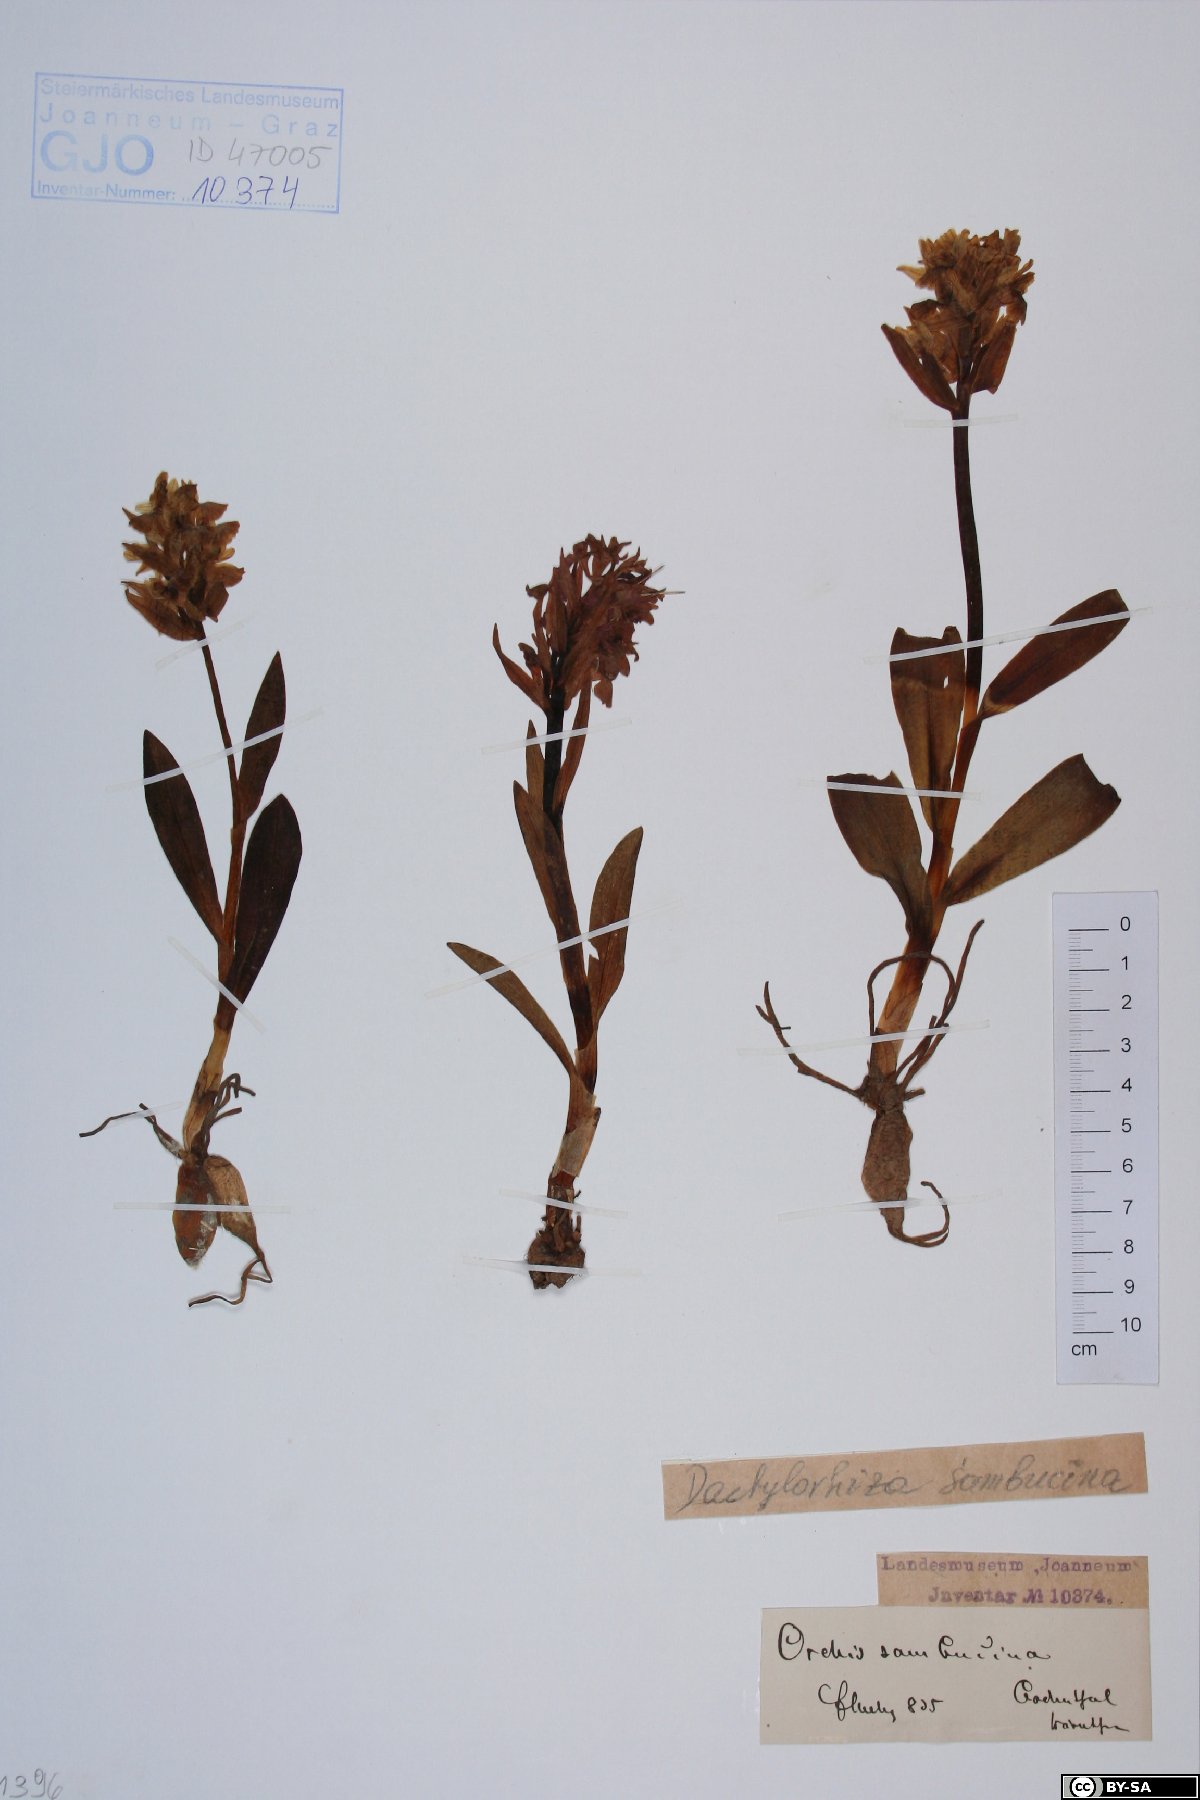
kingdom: Plantae
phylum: Tracheophyta
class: Liliopsida
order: Asparagales
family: Orchidaceae
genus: Dactylorhiza
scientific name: Dactylorhiza sambucina
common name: Elder-flowered orchid
